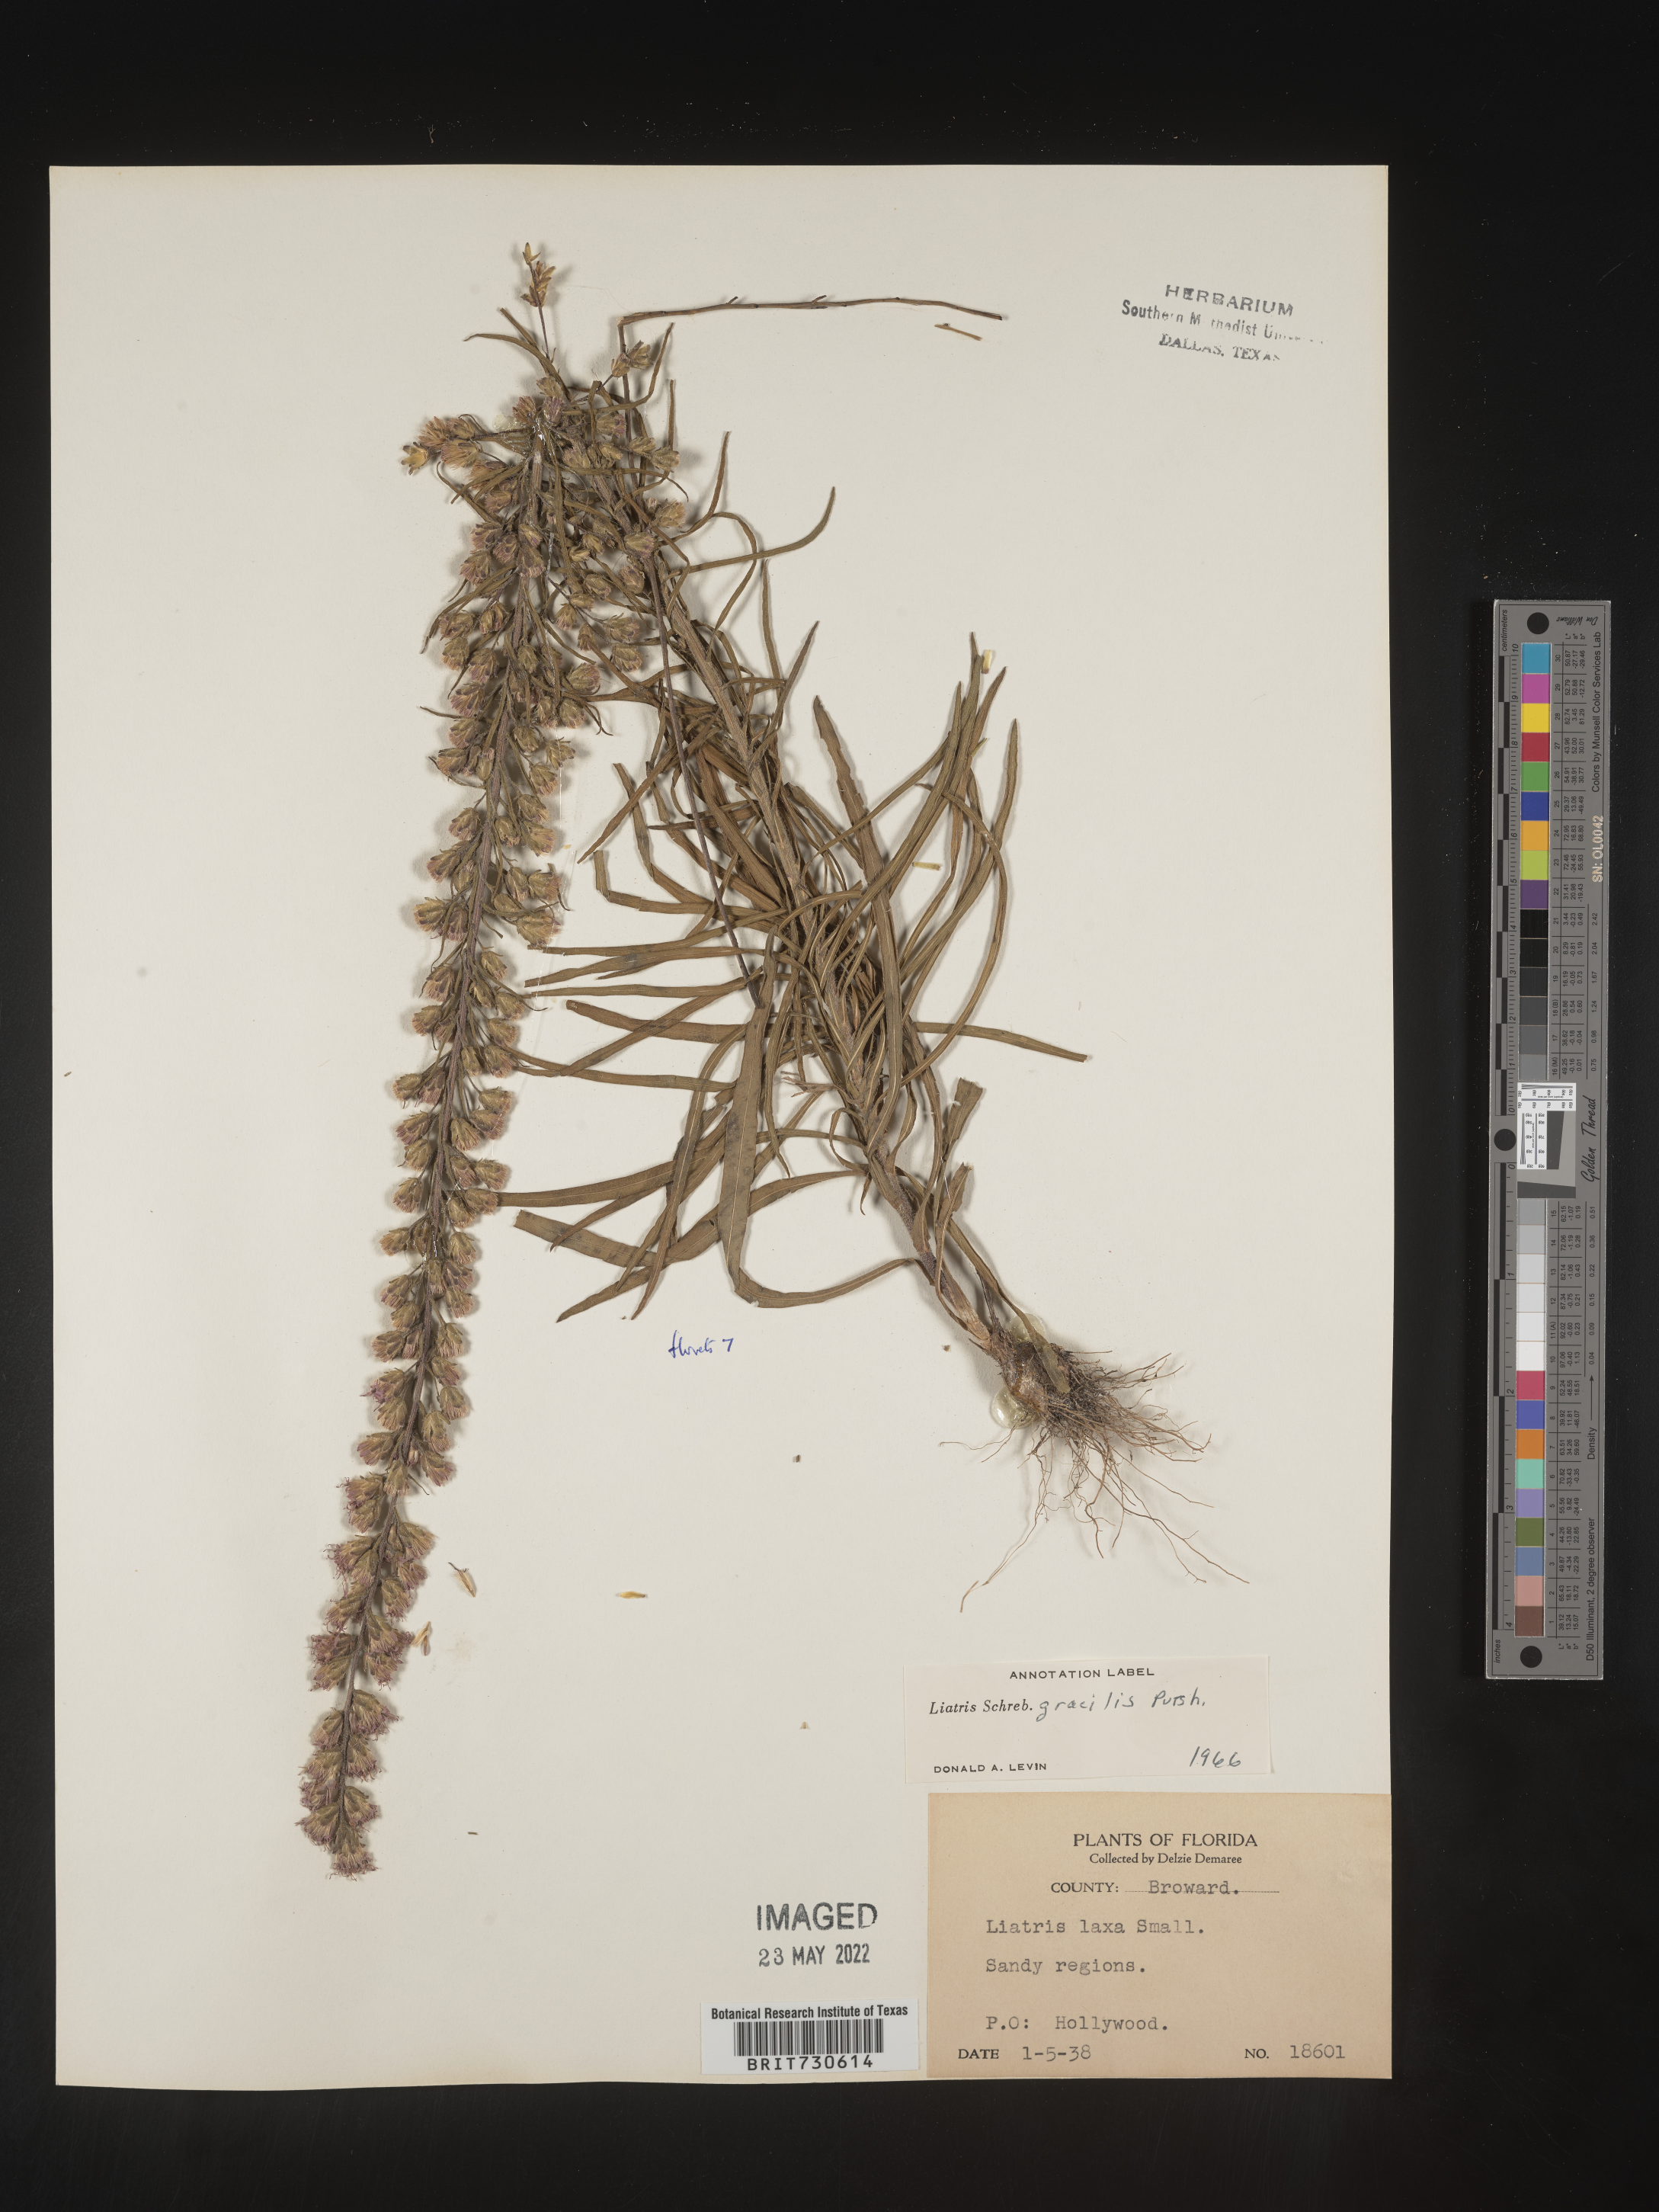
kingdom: Plantae
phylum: Tracheophyta
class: Magnoliopsida
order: Asterales
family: Asteraceae
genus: Liatris
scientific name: Liatris gracilis
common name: Slender gayfeather
